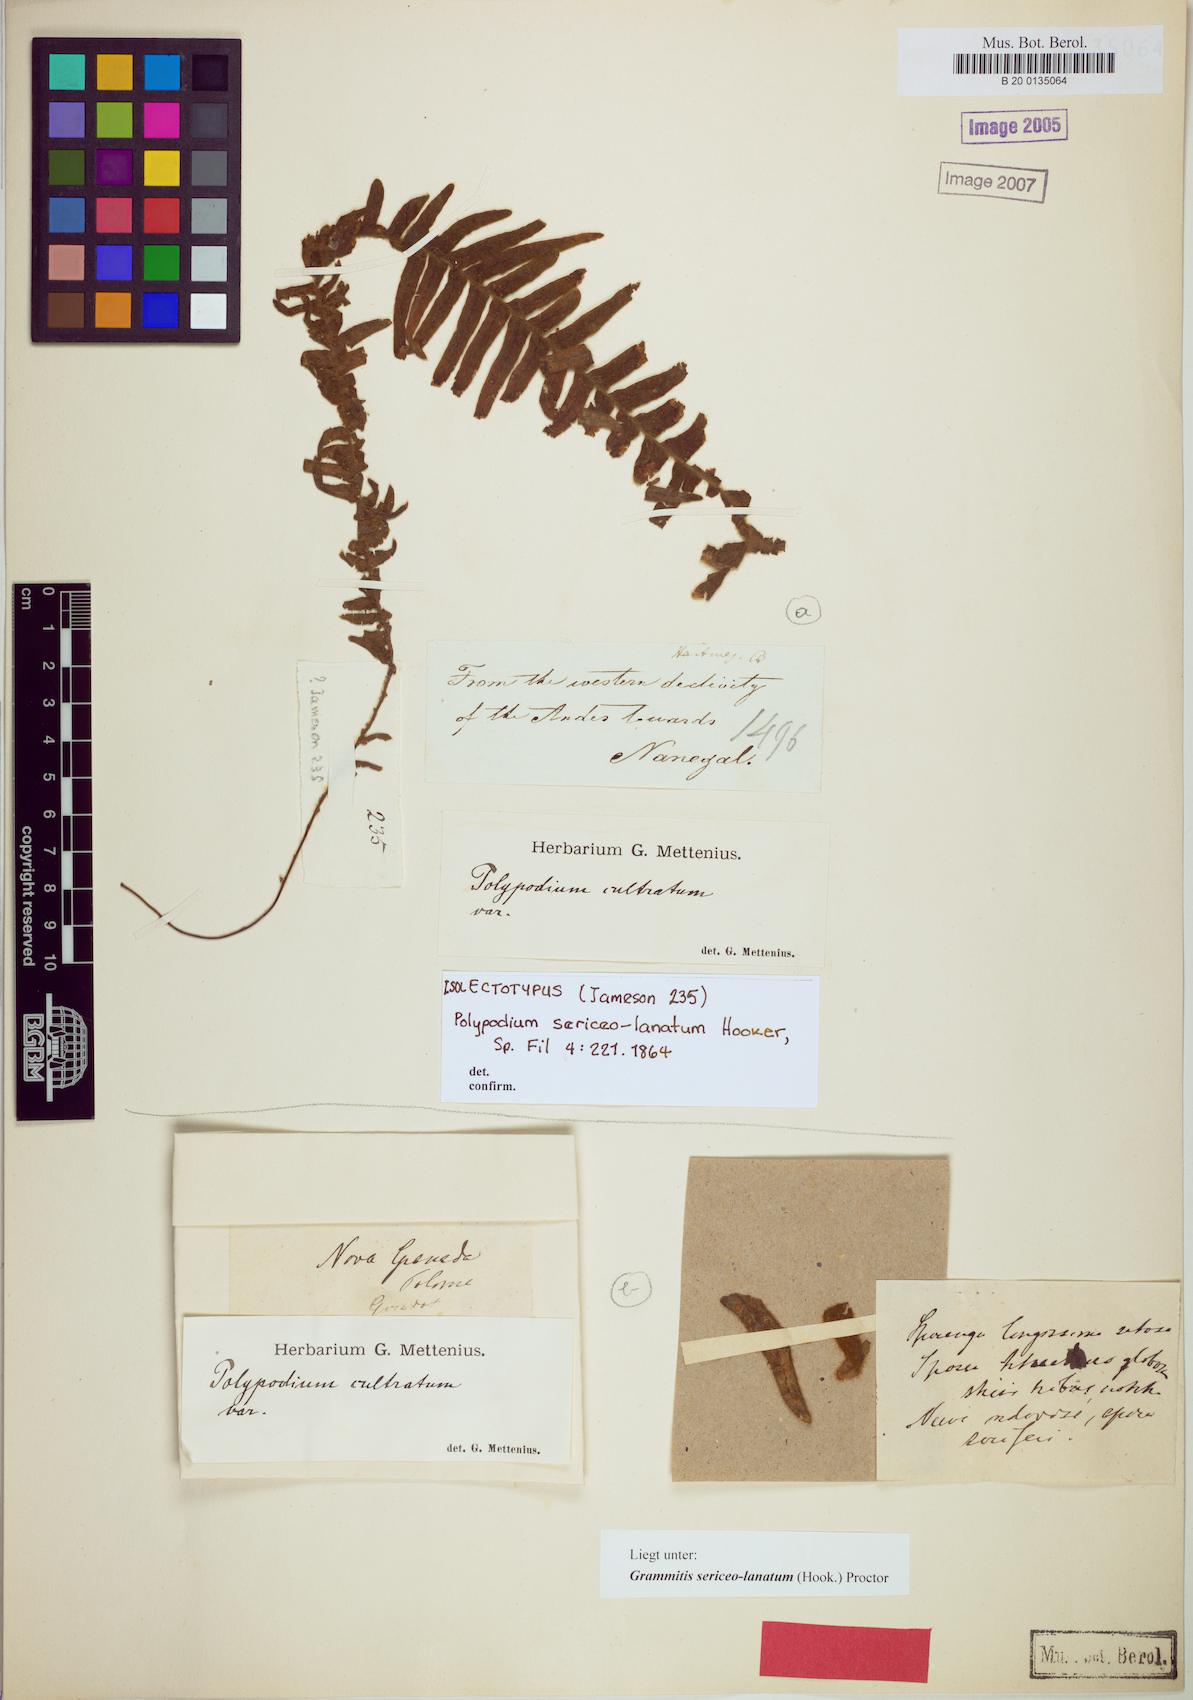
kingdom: Plantae
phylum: Tracheophyta
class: Polypodiopsida
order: Polypodiales
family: Polypodiaceae
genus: Alansmia
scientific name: Alansmia lanigera
